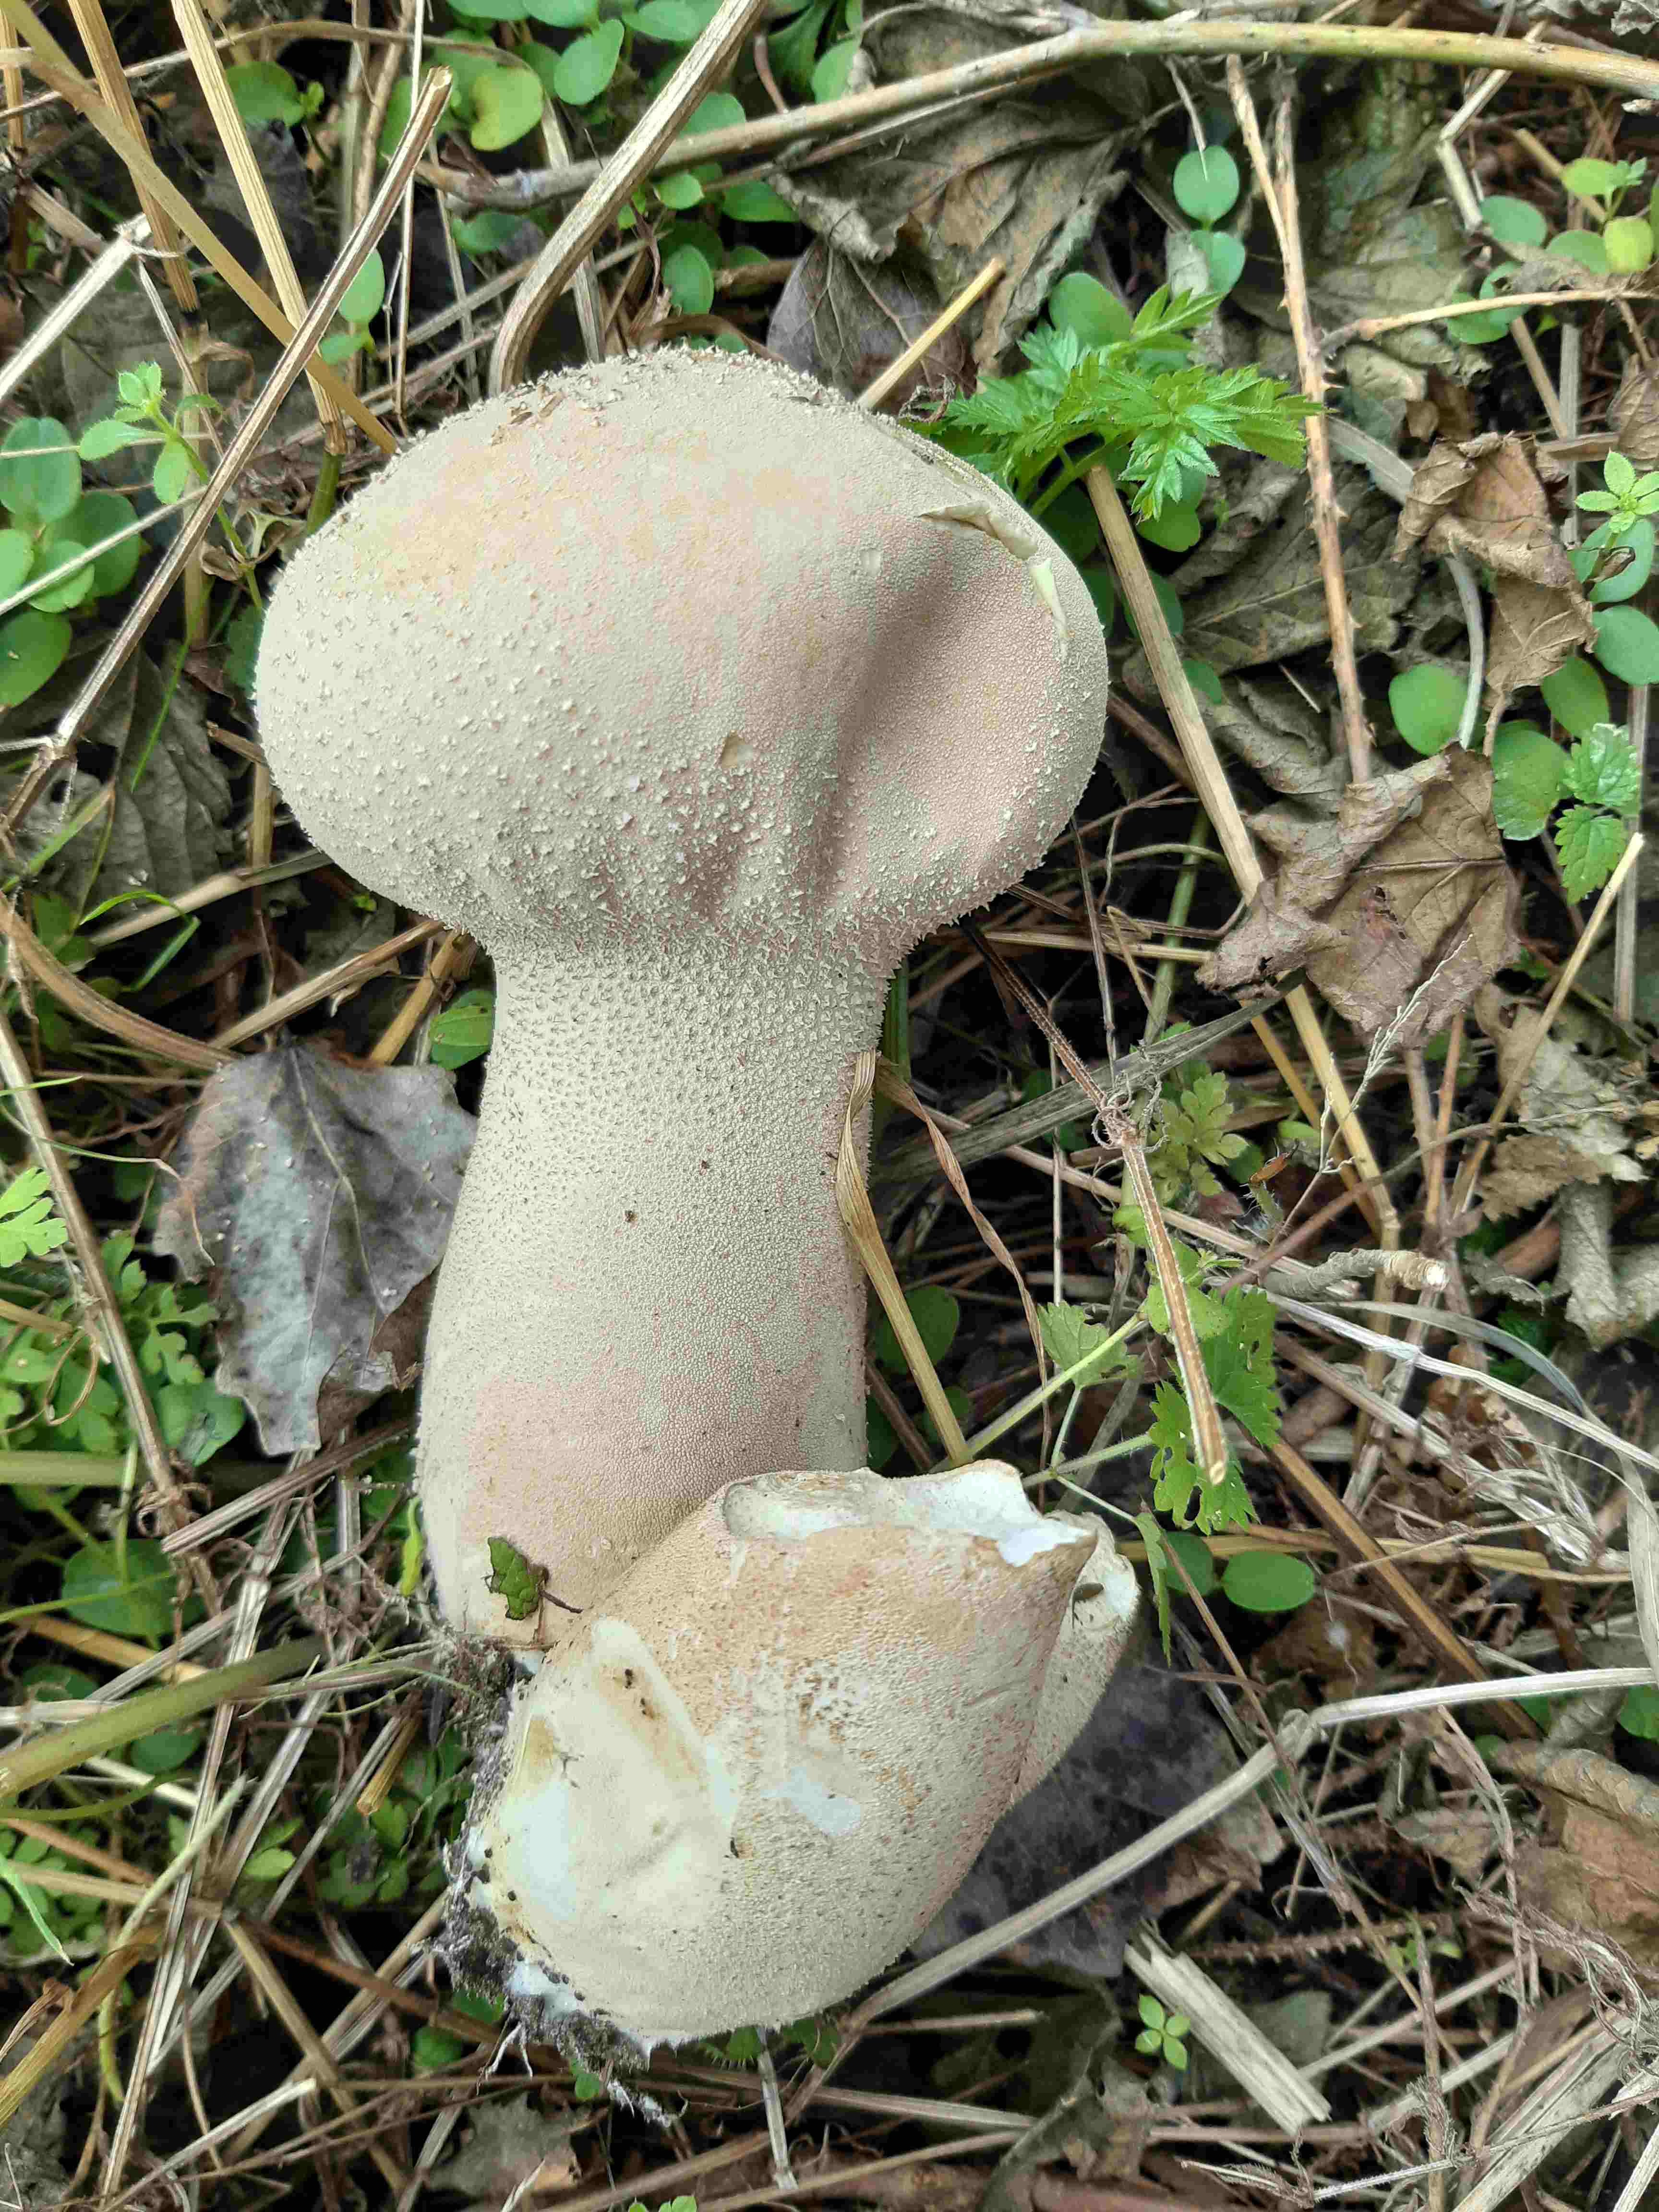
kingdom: Fungi
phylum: Basidiomycota
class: Agaricomycetes
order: Agaricales
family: Lycoperdaceae
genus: Lycoperdon
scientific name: Lycoperdon excipuliforme
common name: højstokket støvbold
